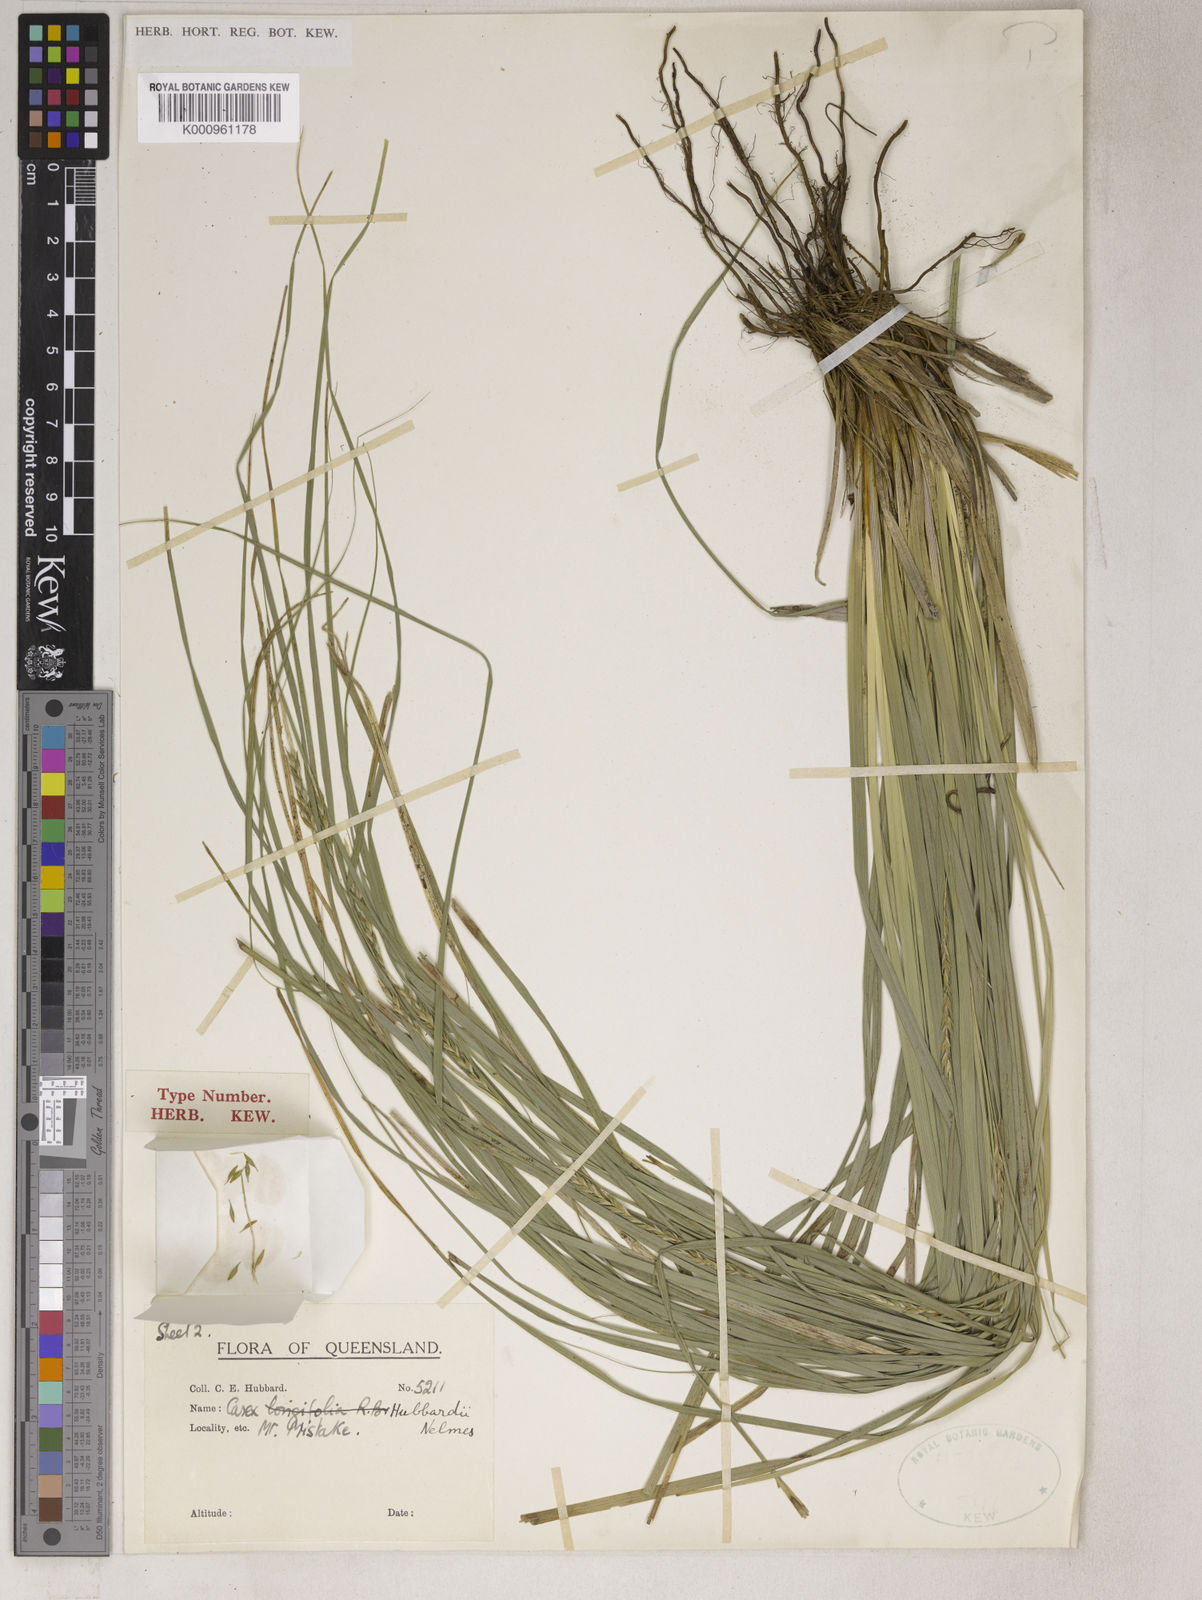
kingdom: Plantae
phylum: Tracheophyta
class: Liliopsida
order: Poales
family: Cyperaceae
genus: Carex
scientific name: Carex hubbardii
